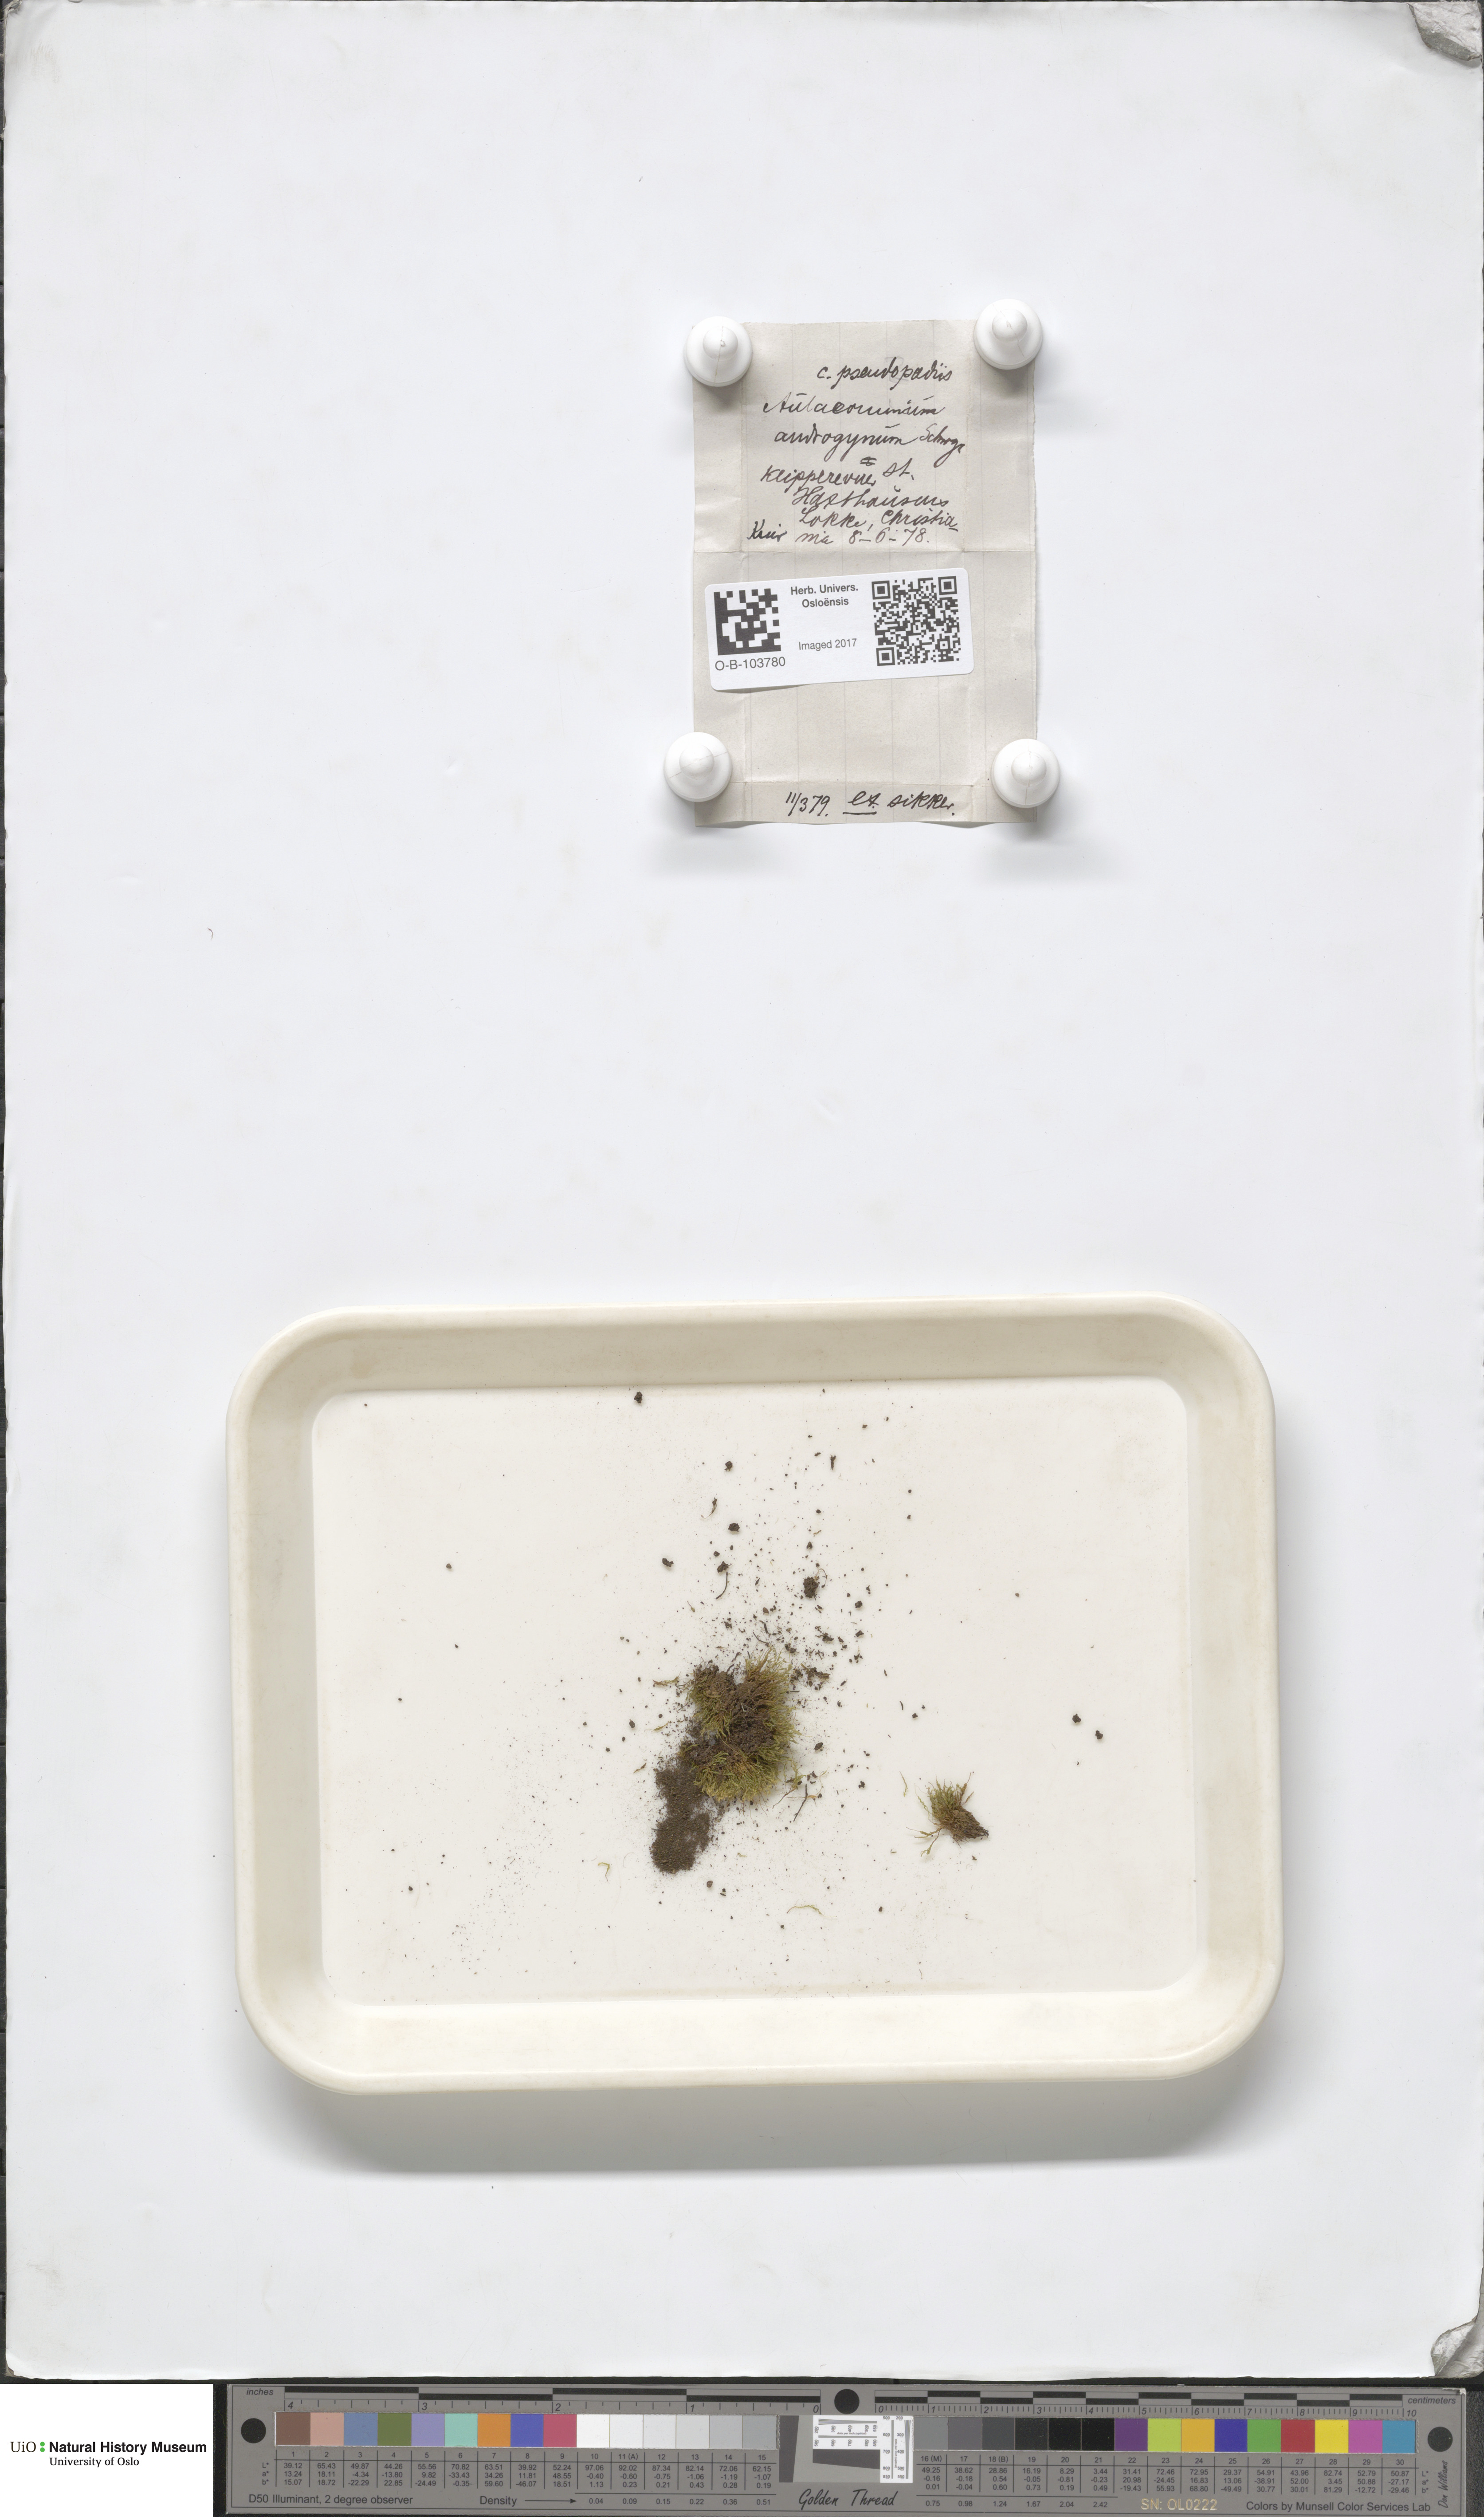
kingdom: Plantae
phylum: Bryophyta
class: Bryopsida
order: Aulacomniales
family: Aulacomniaceae
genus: Aulacomnium
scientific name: Aulacomnium androgynum
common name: Little groove moss
